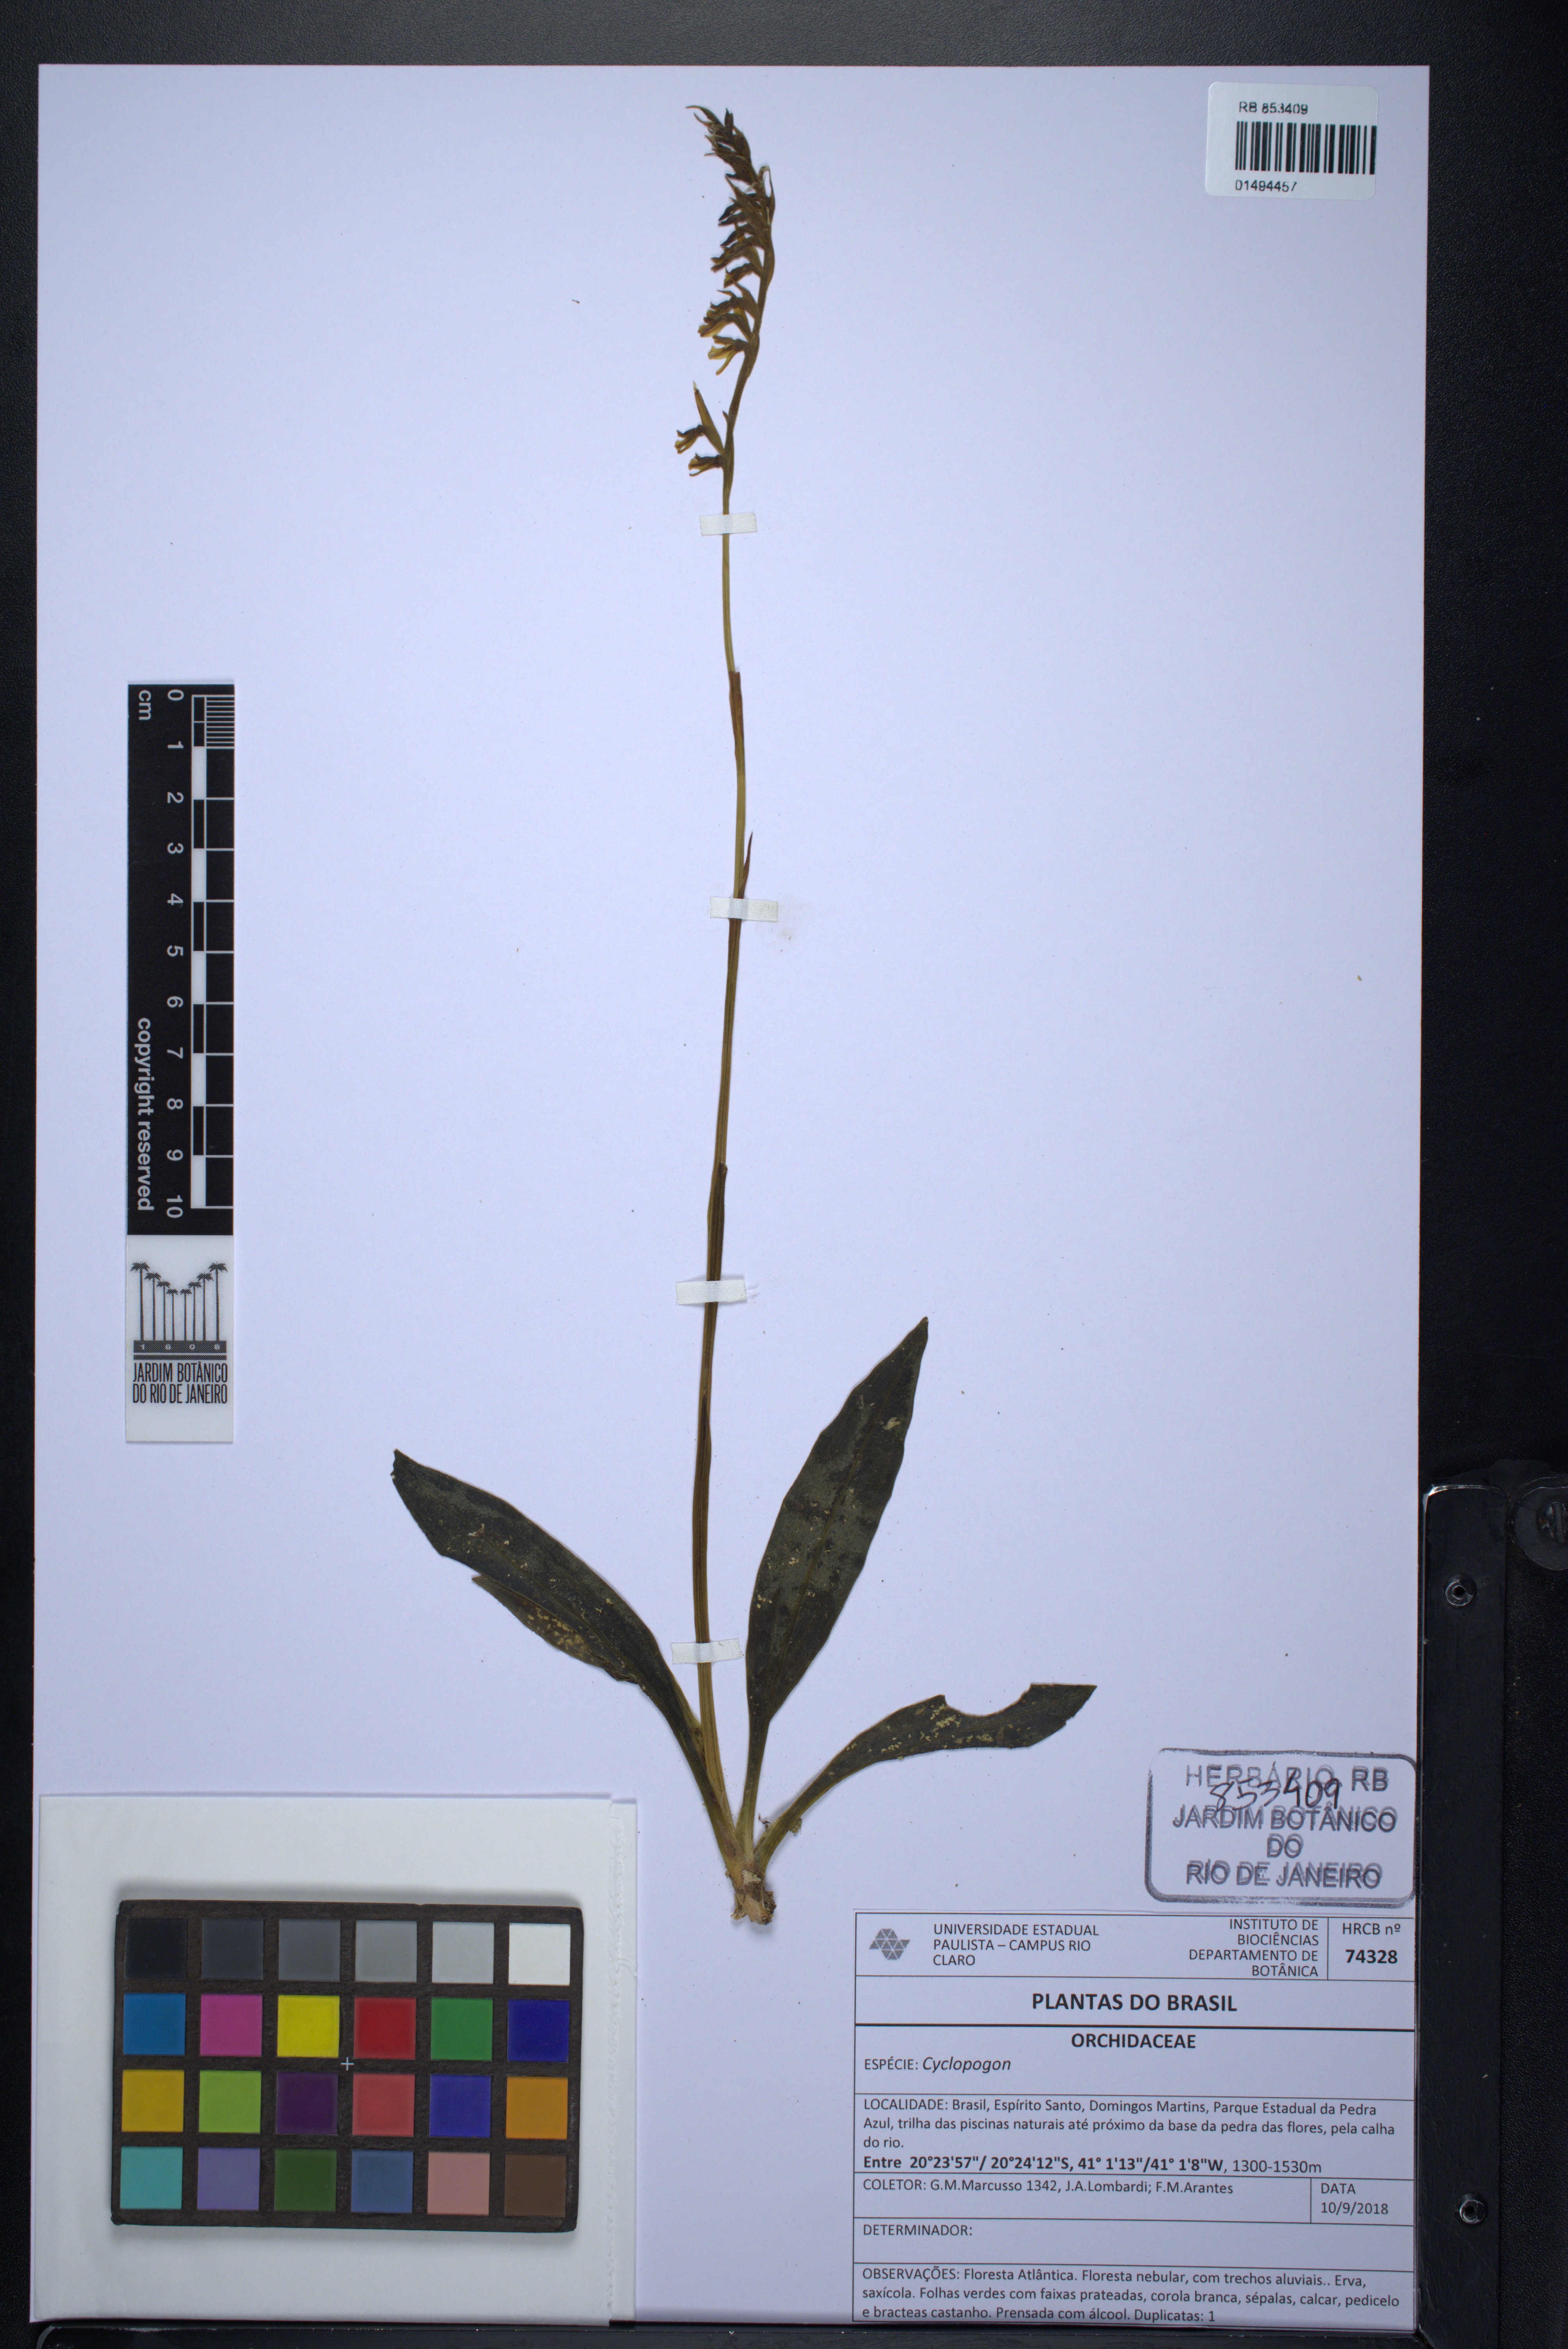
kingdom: Plantae
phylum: Tracheophyta
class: Liliopsida
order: Asparagales
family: Orchidaceae
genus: Cyclopogon
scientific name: Cyclopogon
